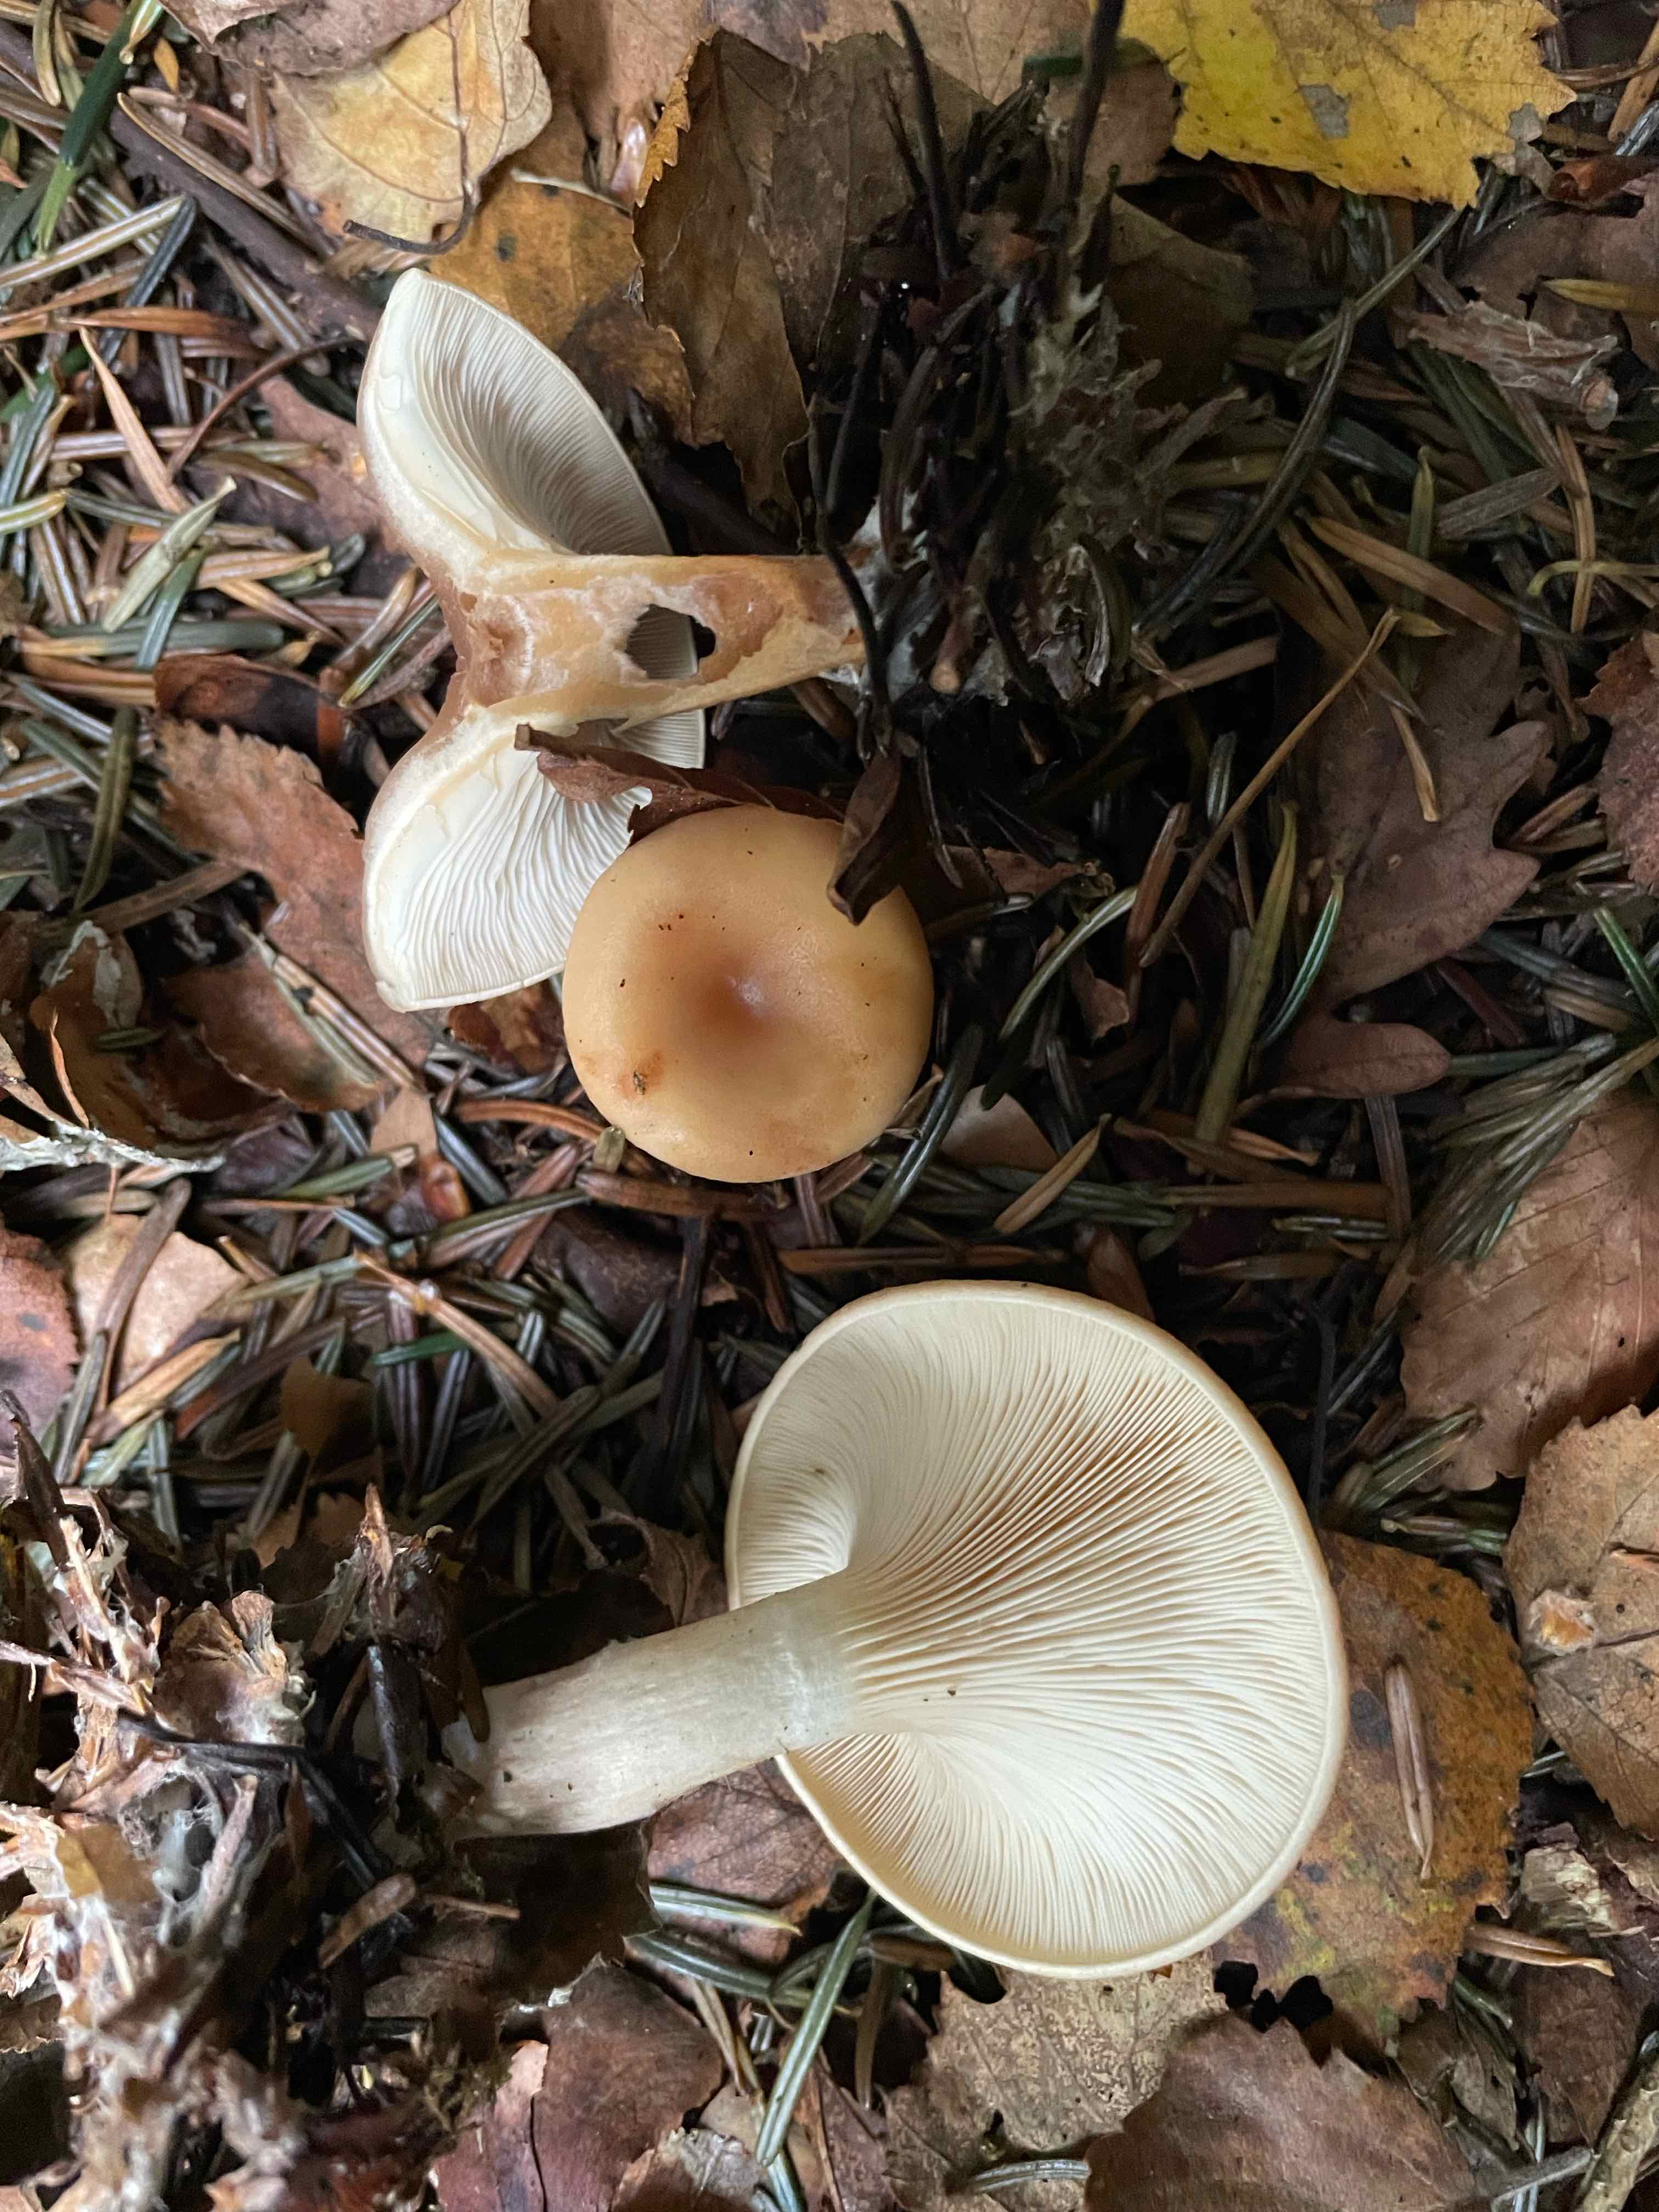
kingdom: Fungi
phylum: Basidiomycota
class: Agaricomycetes
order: Agaricales
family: Tricholomataceae
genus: Paralepista
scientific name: Paralepista flaccida
